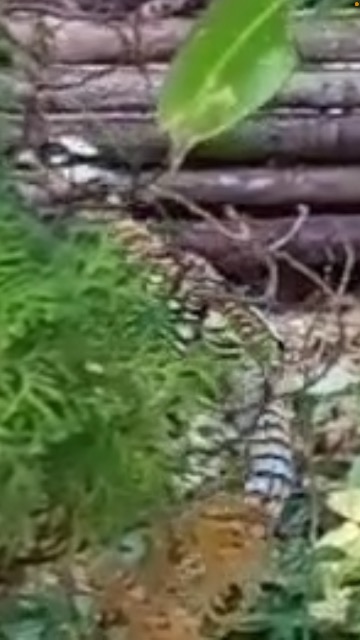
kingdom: Animalia
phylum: Chordata
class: Aves
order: Galliformes
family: Phasianidae
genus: Syrmaticus
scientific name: Syrmaticus reevesii
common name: Kongefasan
